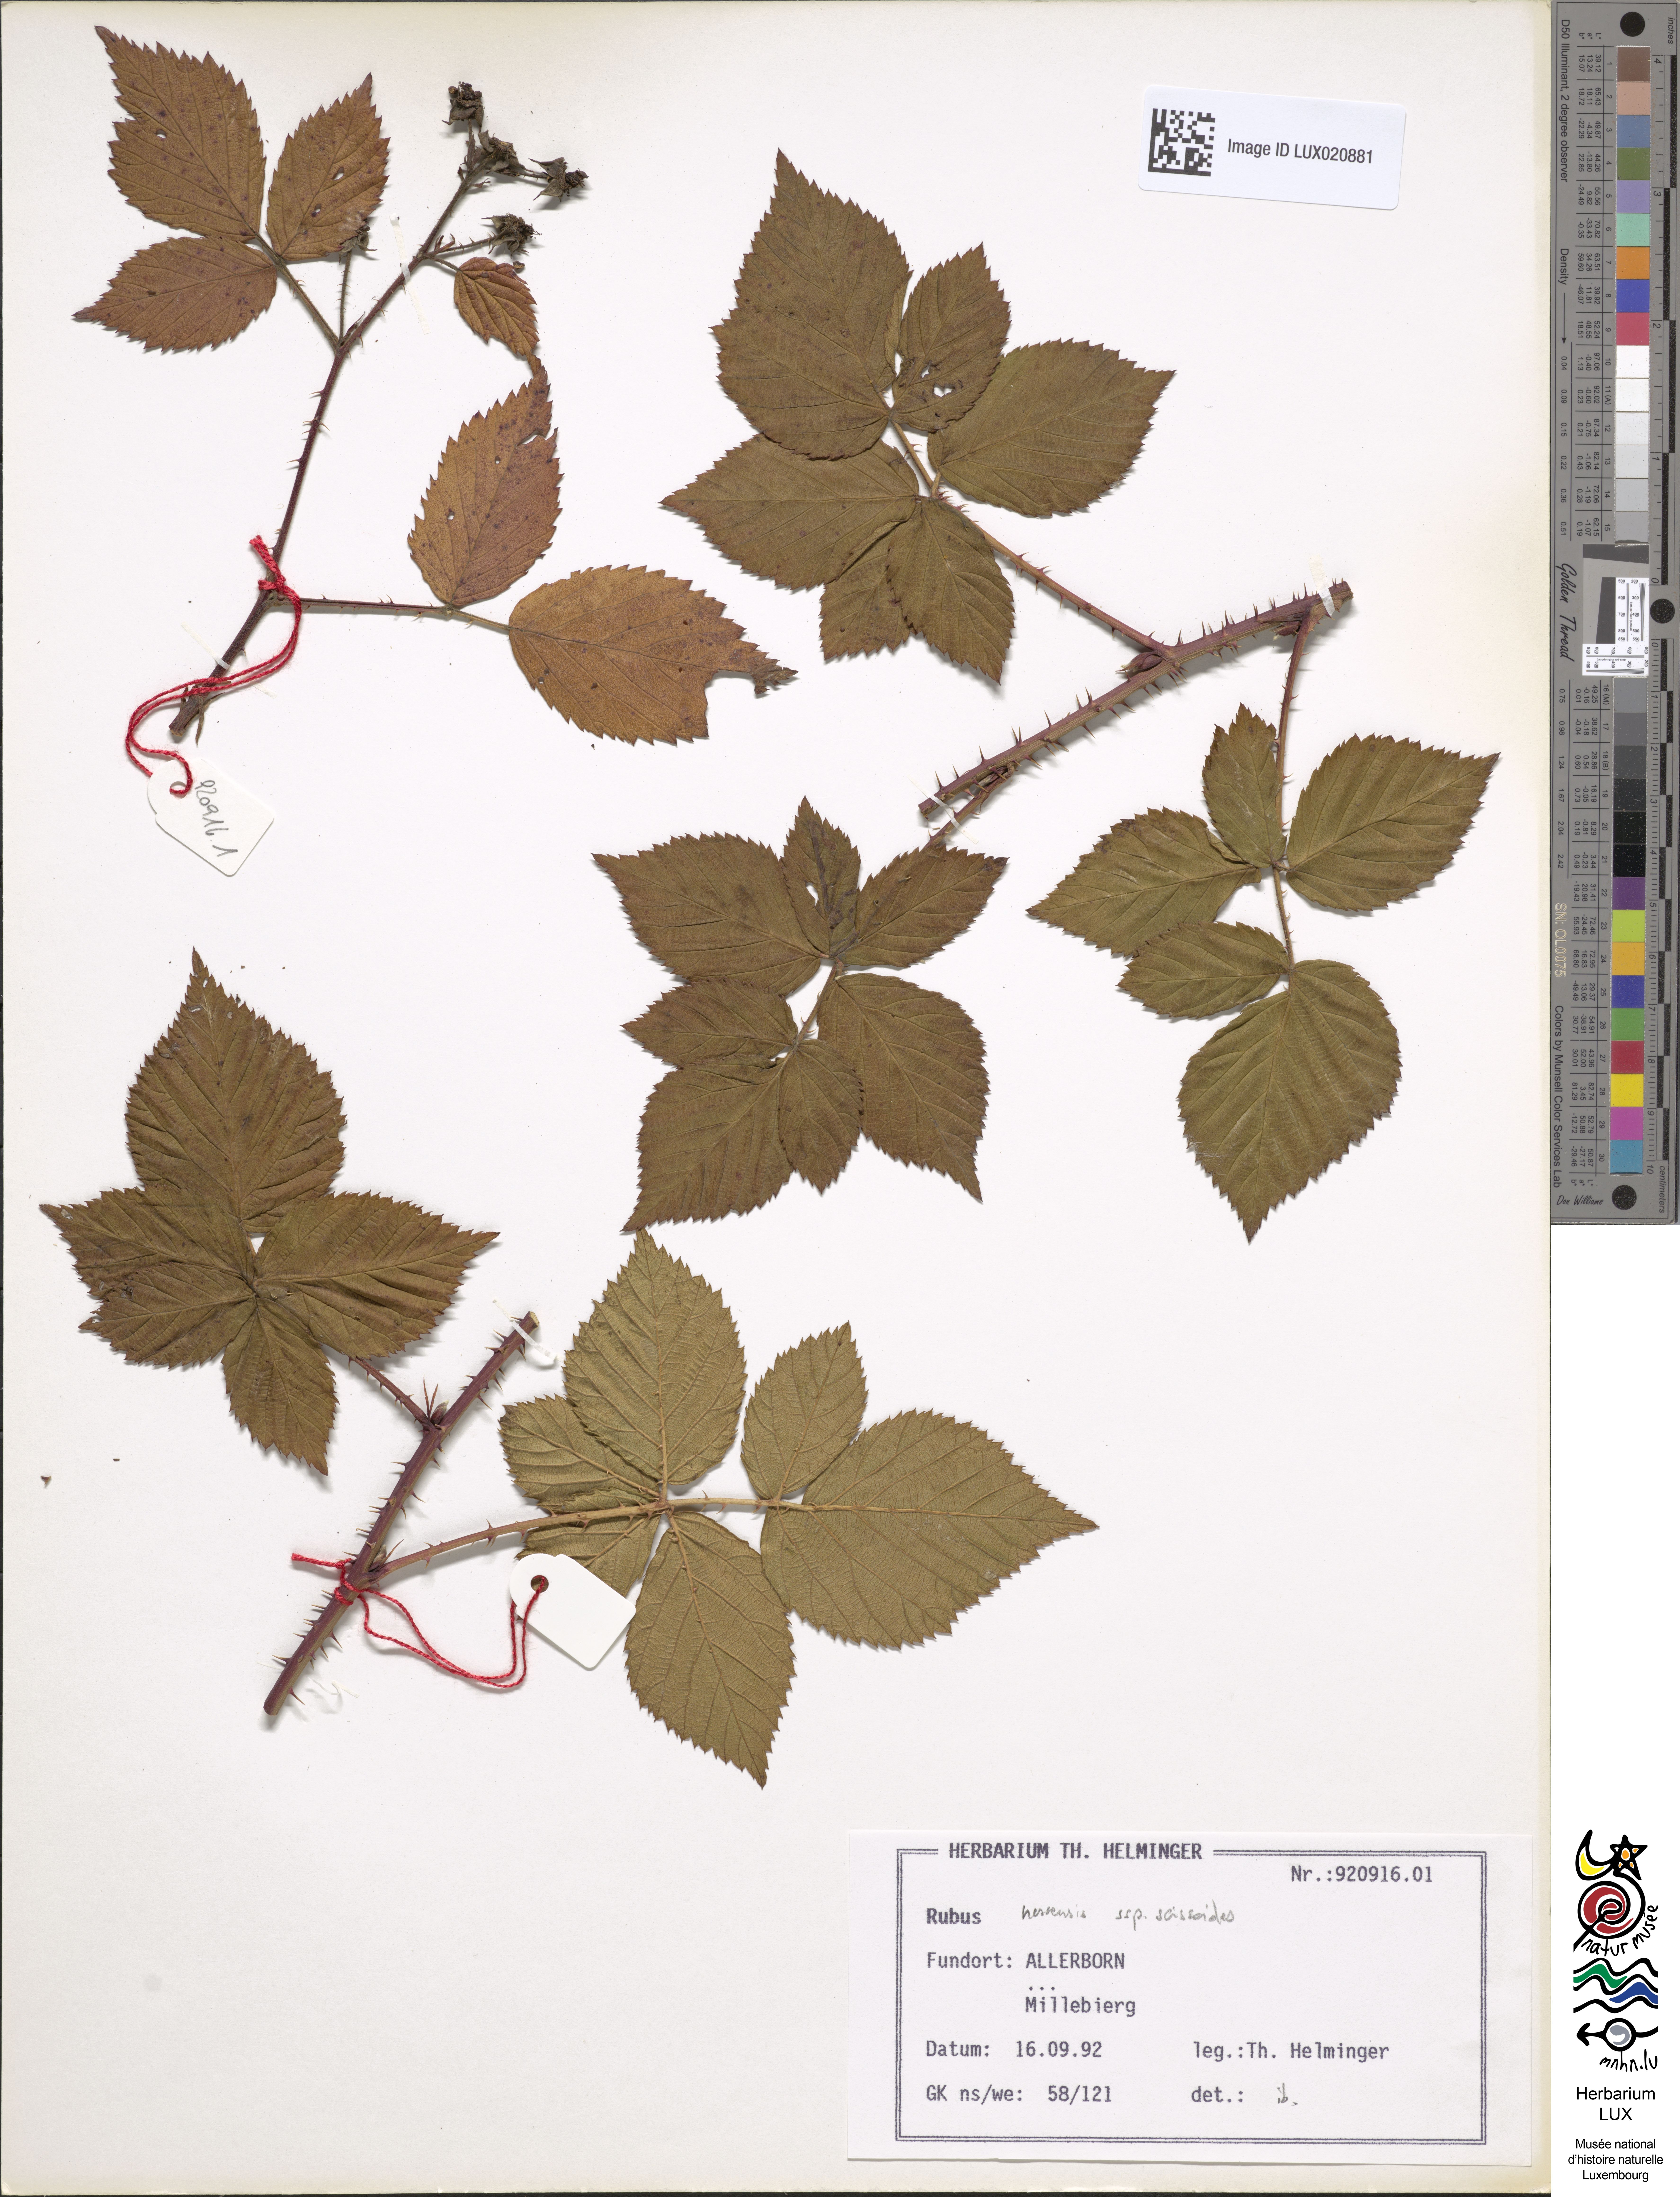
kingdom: Plantae
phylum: Tracheophyta
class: Magnoliopsida
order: Rosales
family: Rosaceae
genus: Rubus
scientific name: Rubus scissoides
